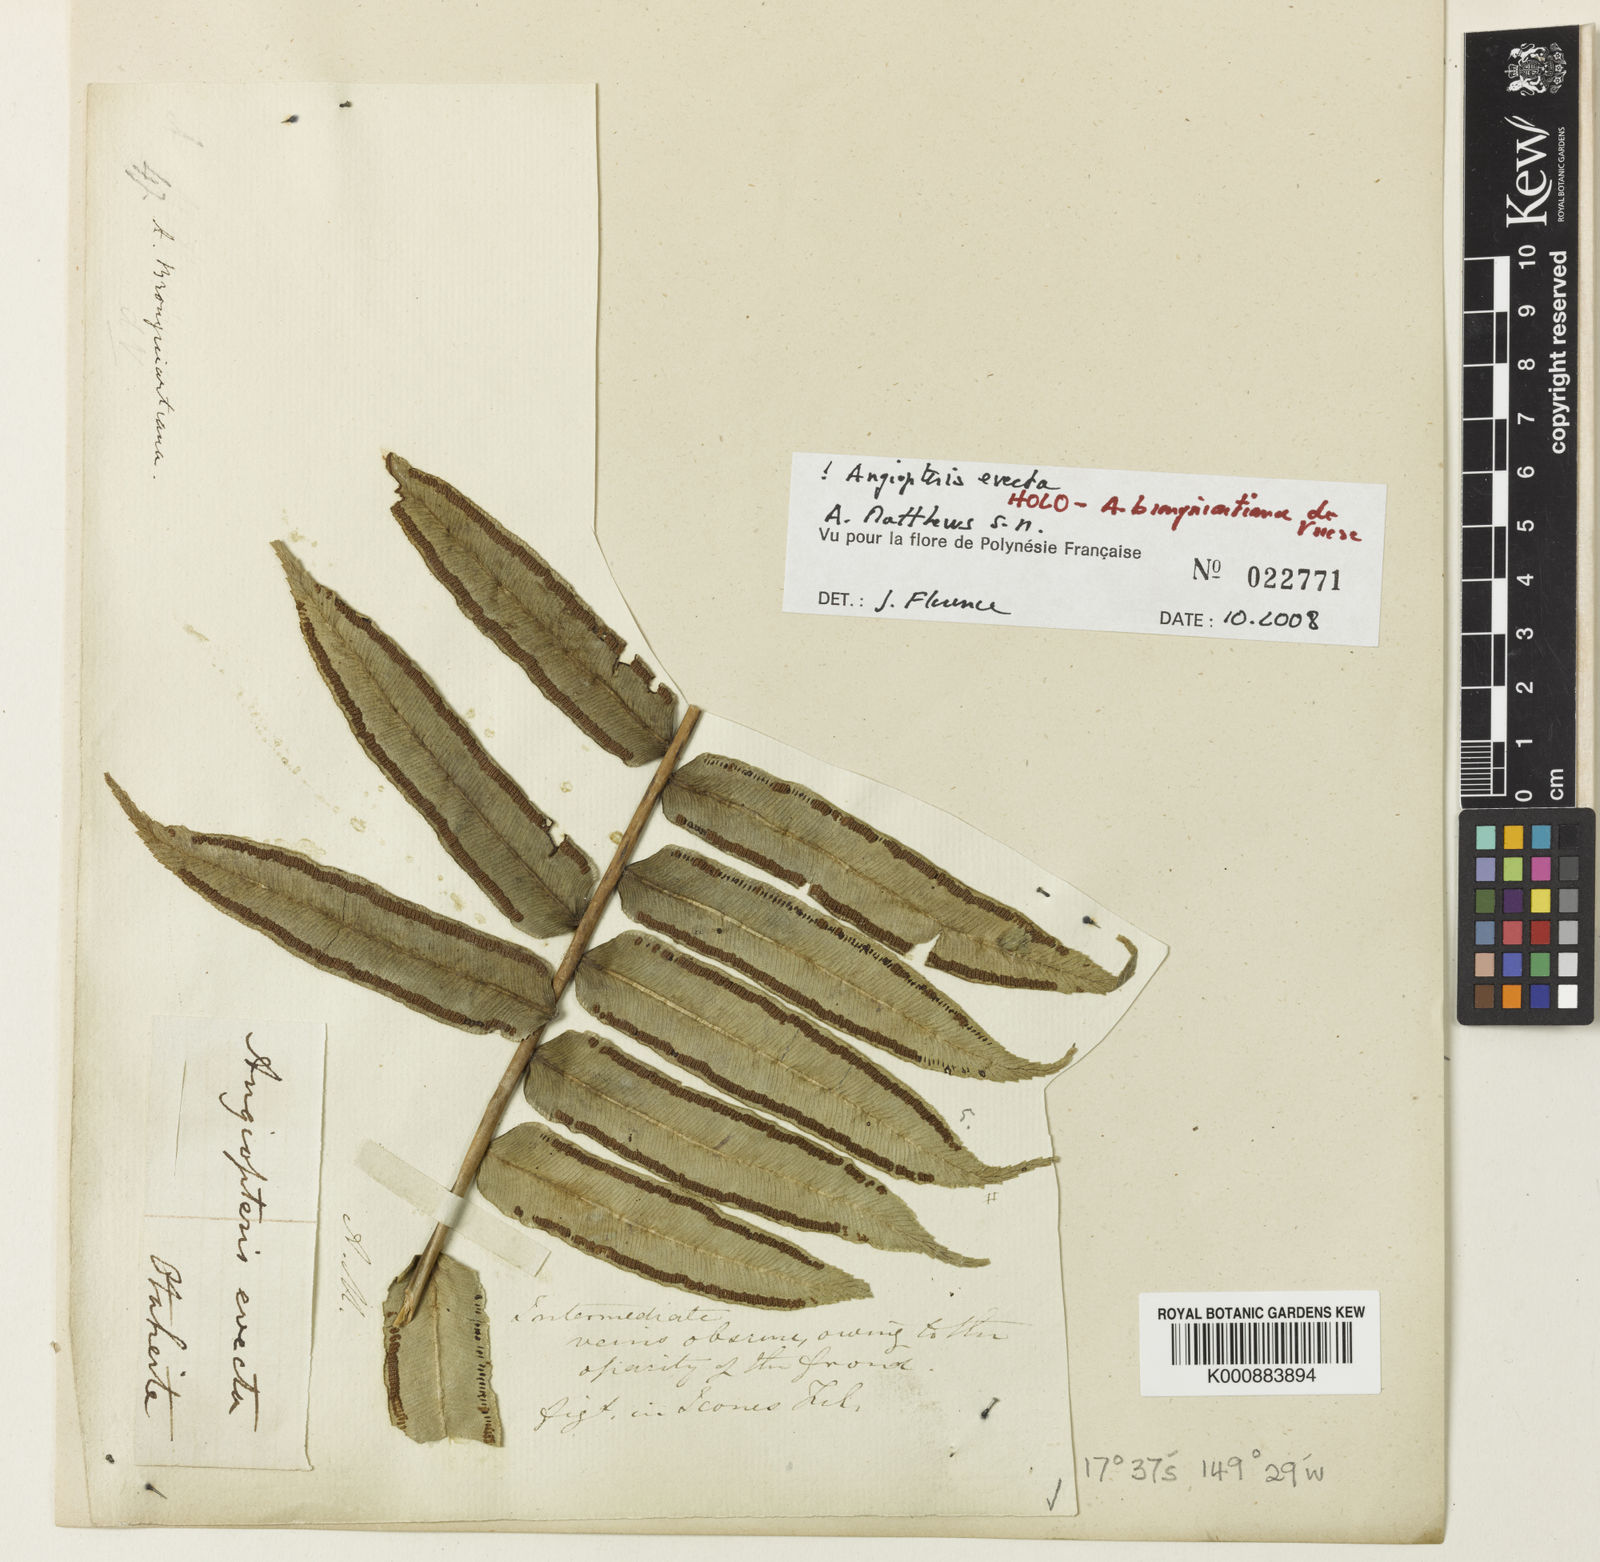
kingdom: Plantae
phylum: Tracheophyta
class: Polypodiopsida
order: Marattiales
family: Marattiaceae
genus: Angiopteris
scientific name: Angiopteris evecta
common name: Mule's-foot fern
